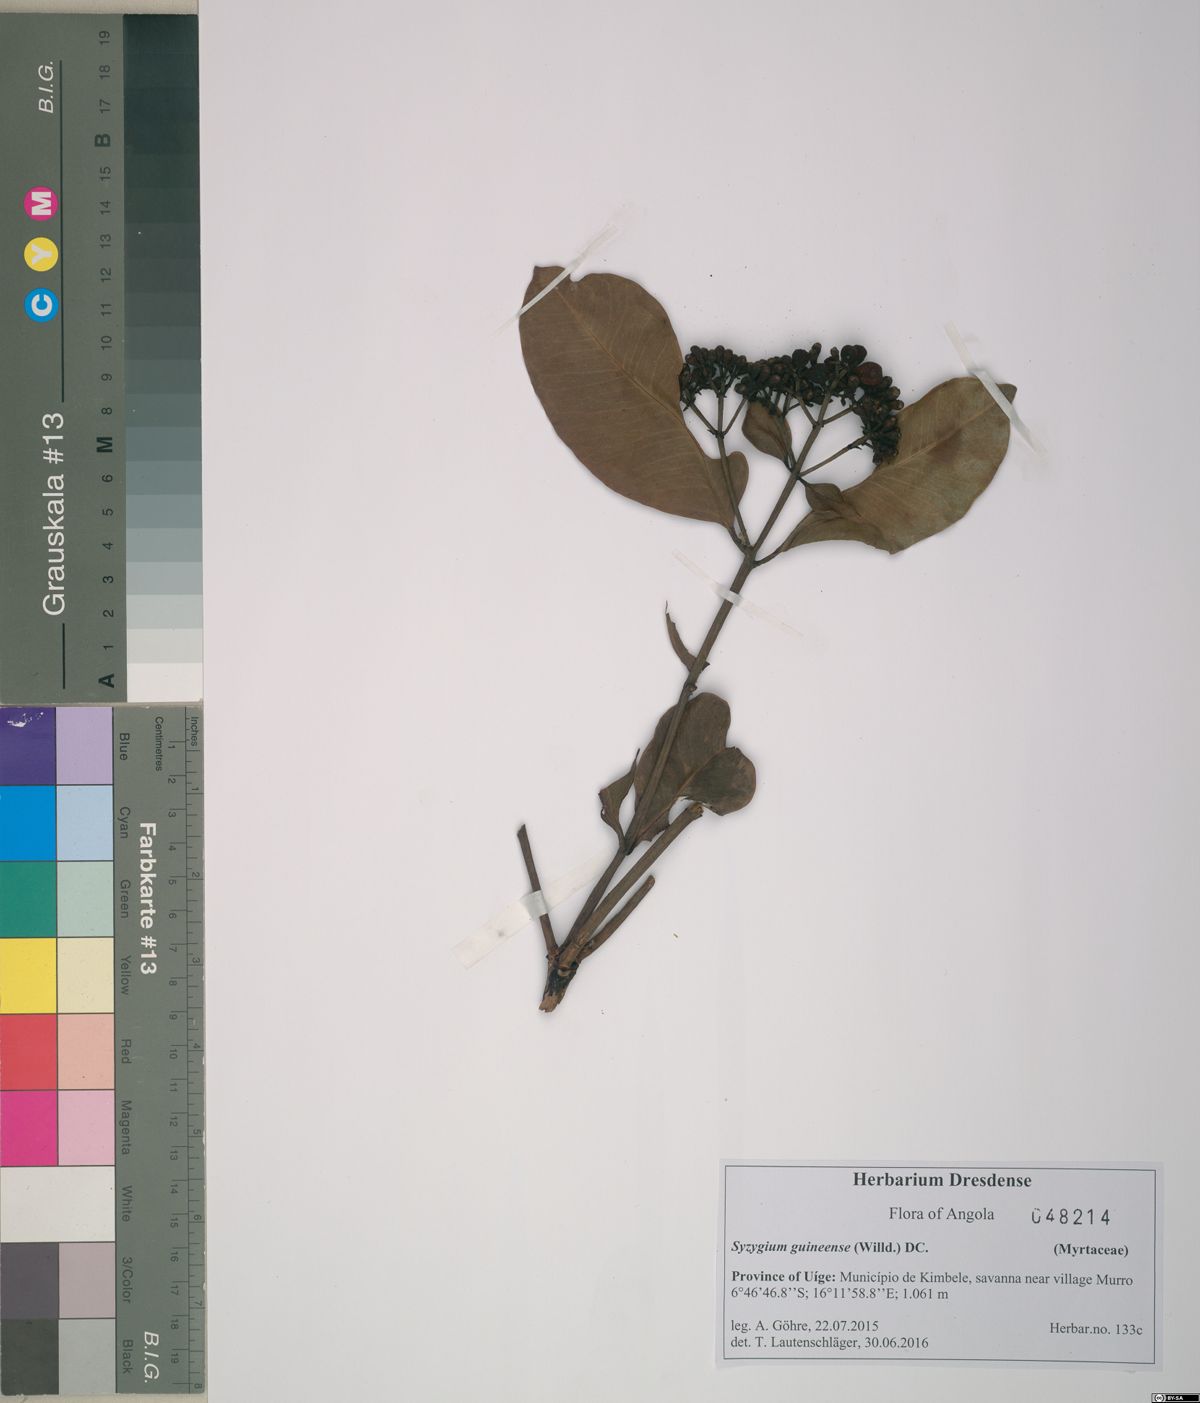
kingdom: Plantae
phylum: Tracheophyta
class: Magnoliopsida
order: Myrtales
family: Myrtaceae
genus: Syzygium
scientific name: Syzygium guineense
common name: Water-pear
